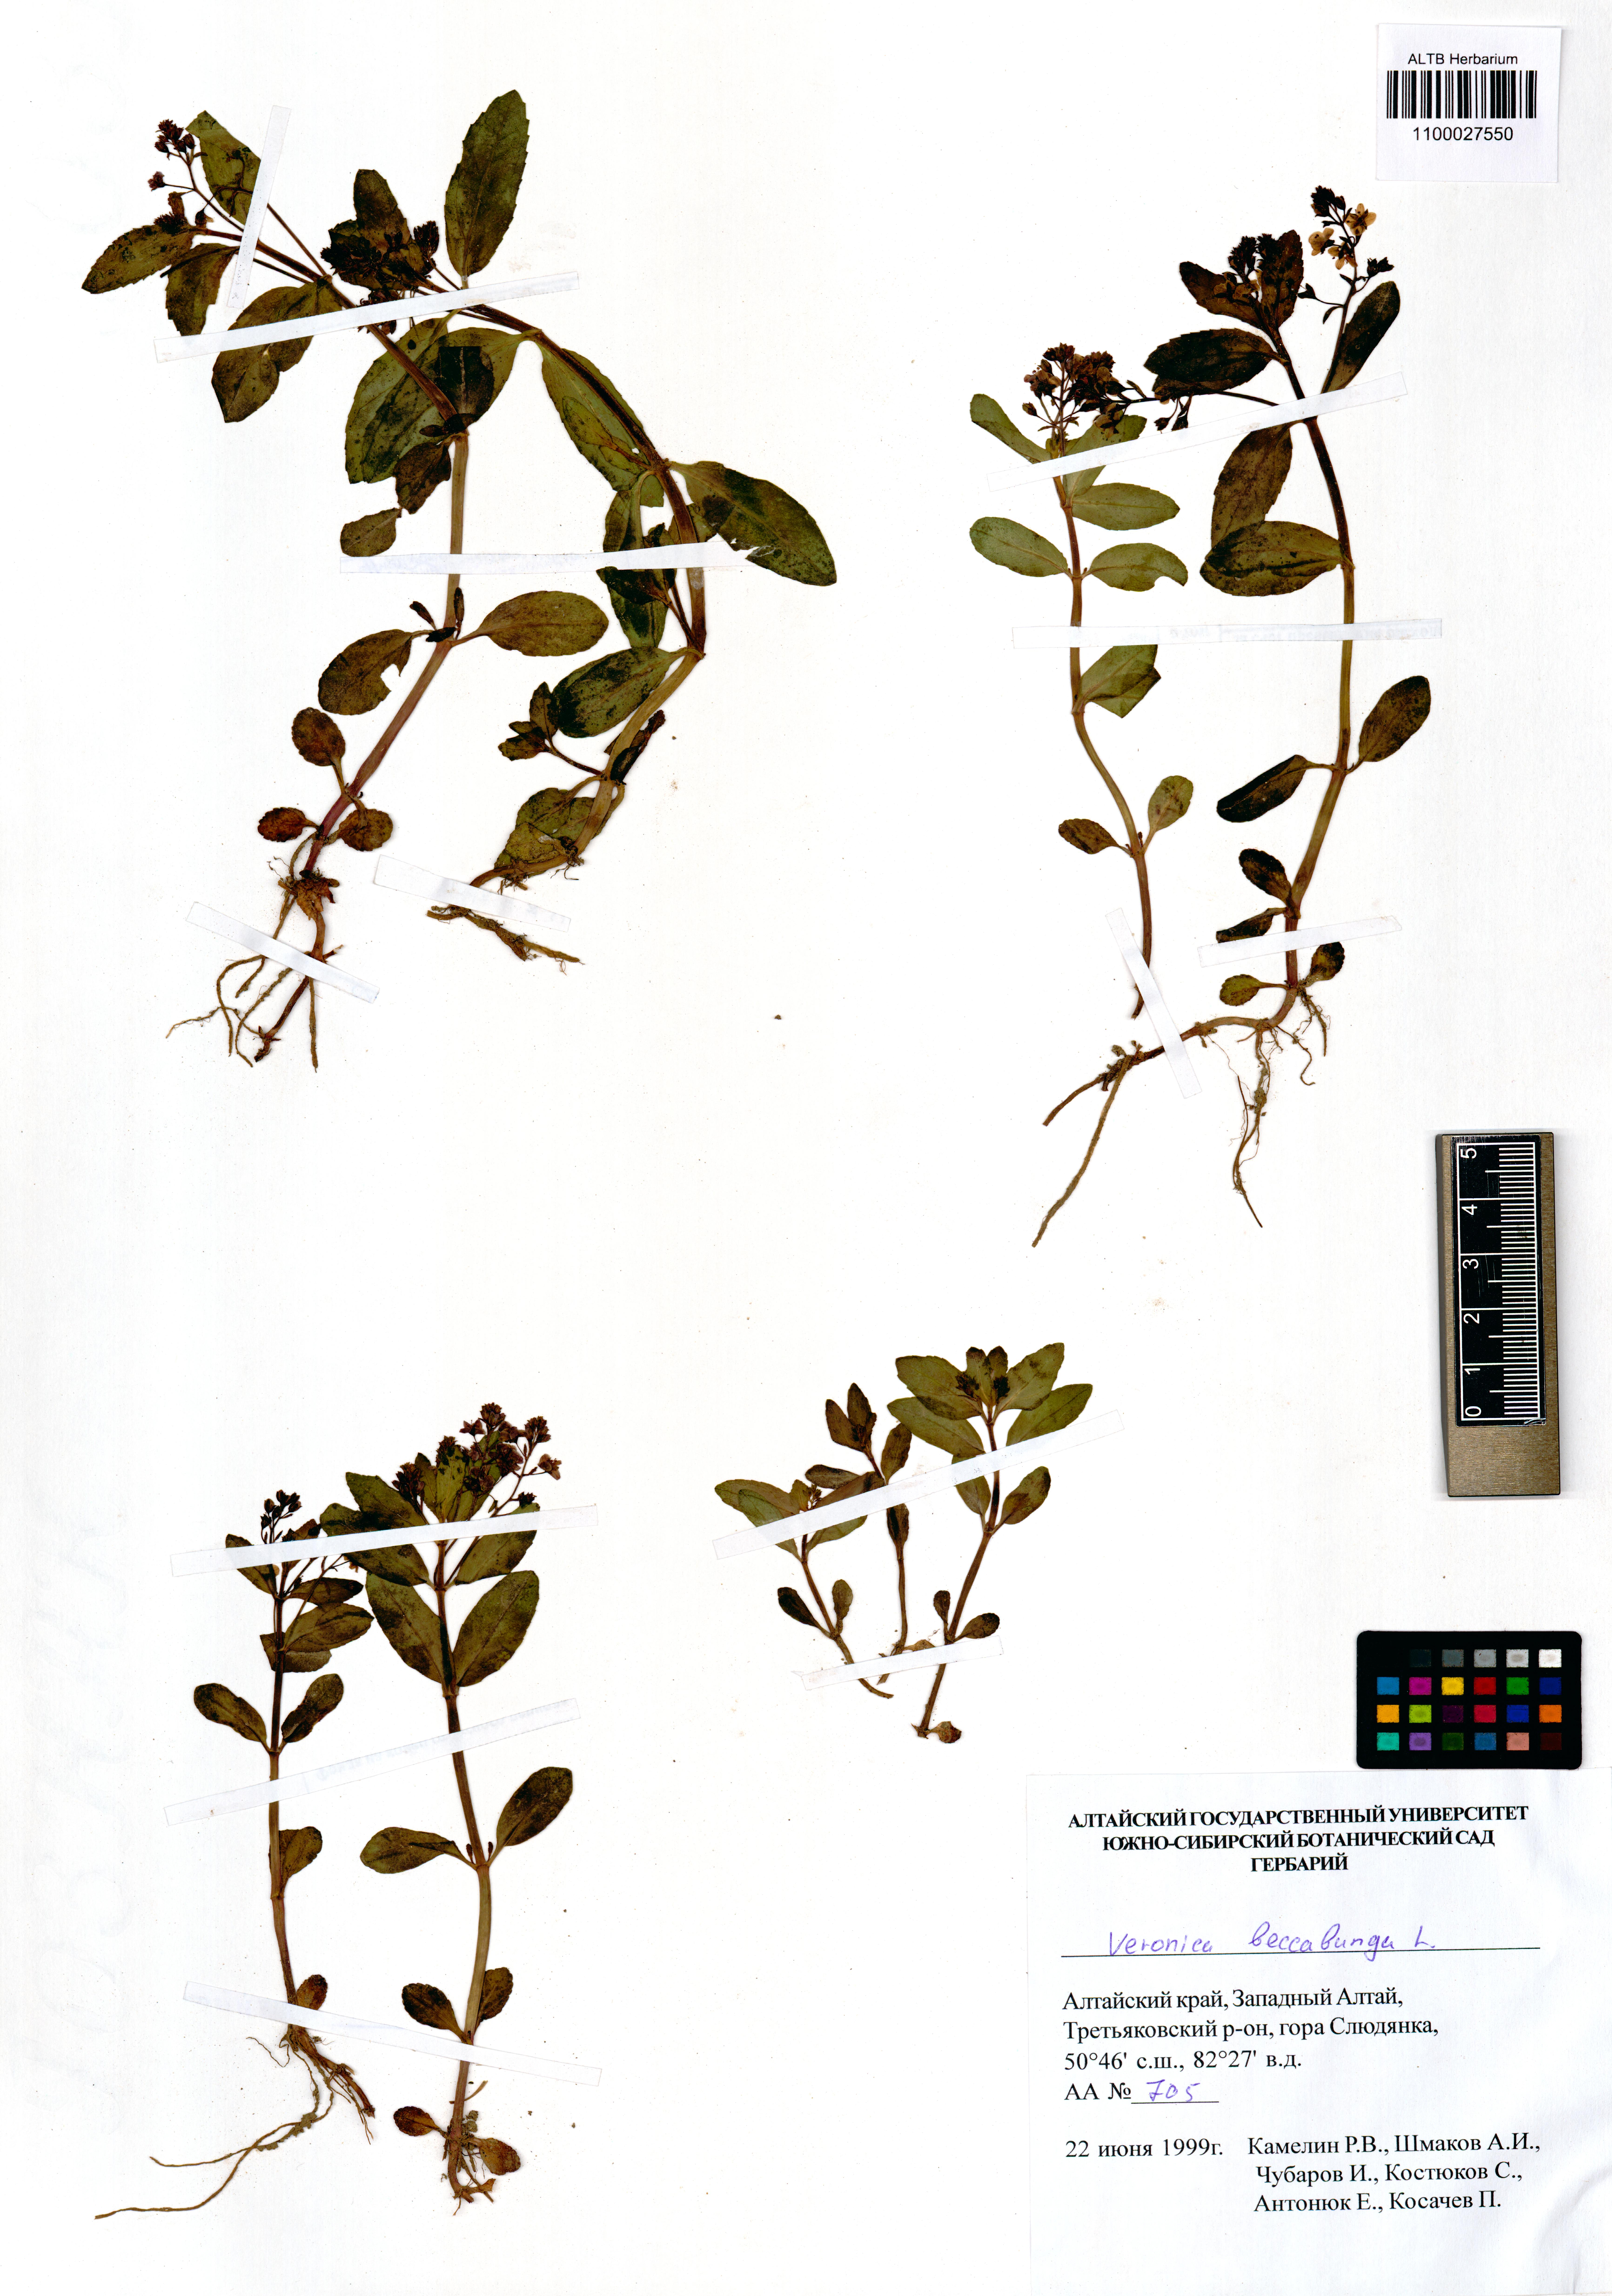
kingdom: Plantae
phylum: Tracheophyta
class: Magnoliopsida
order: Lamiales
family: Plantaginaceae
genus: Veronica
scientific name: Veronica beccabunga
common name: Brooklime
